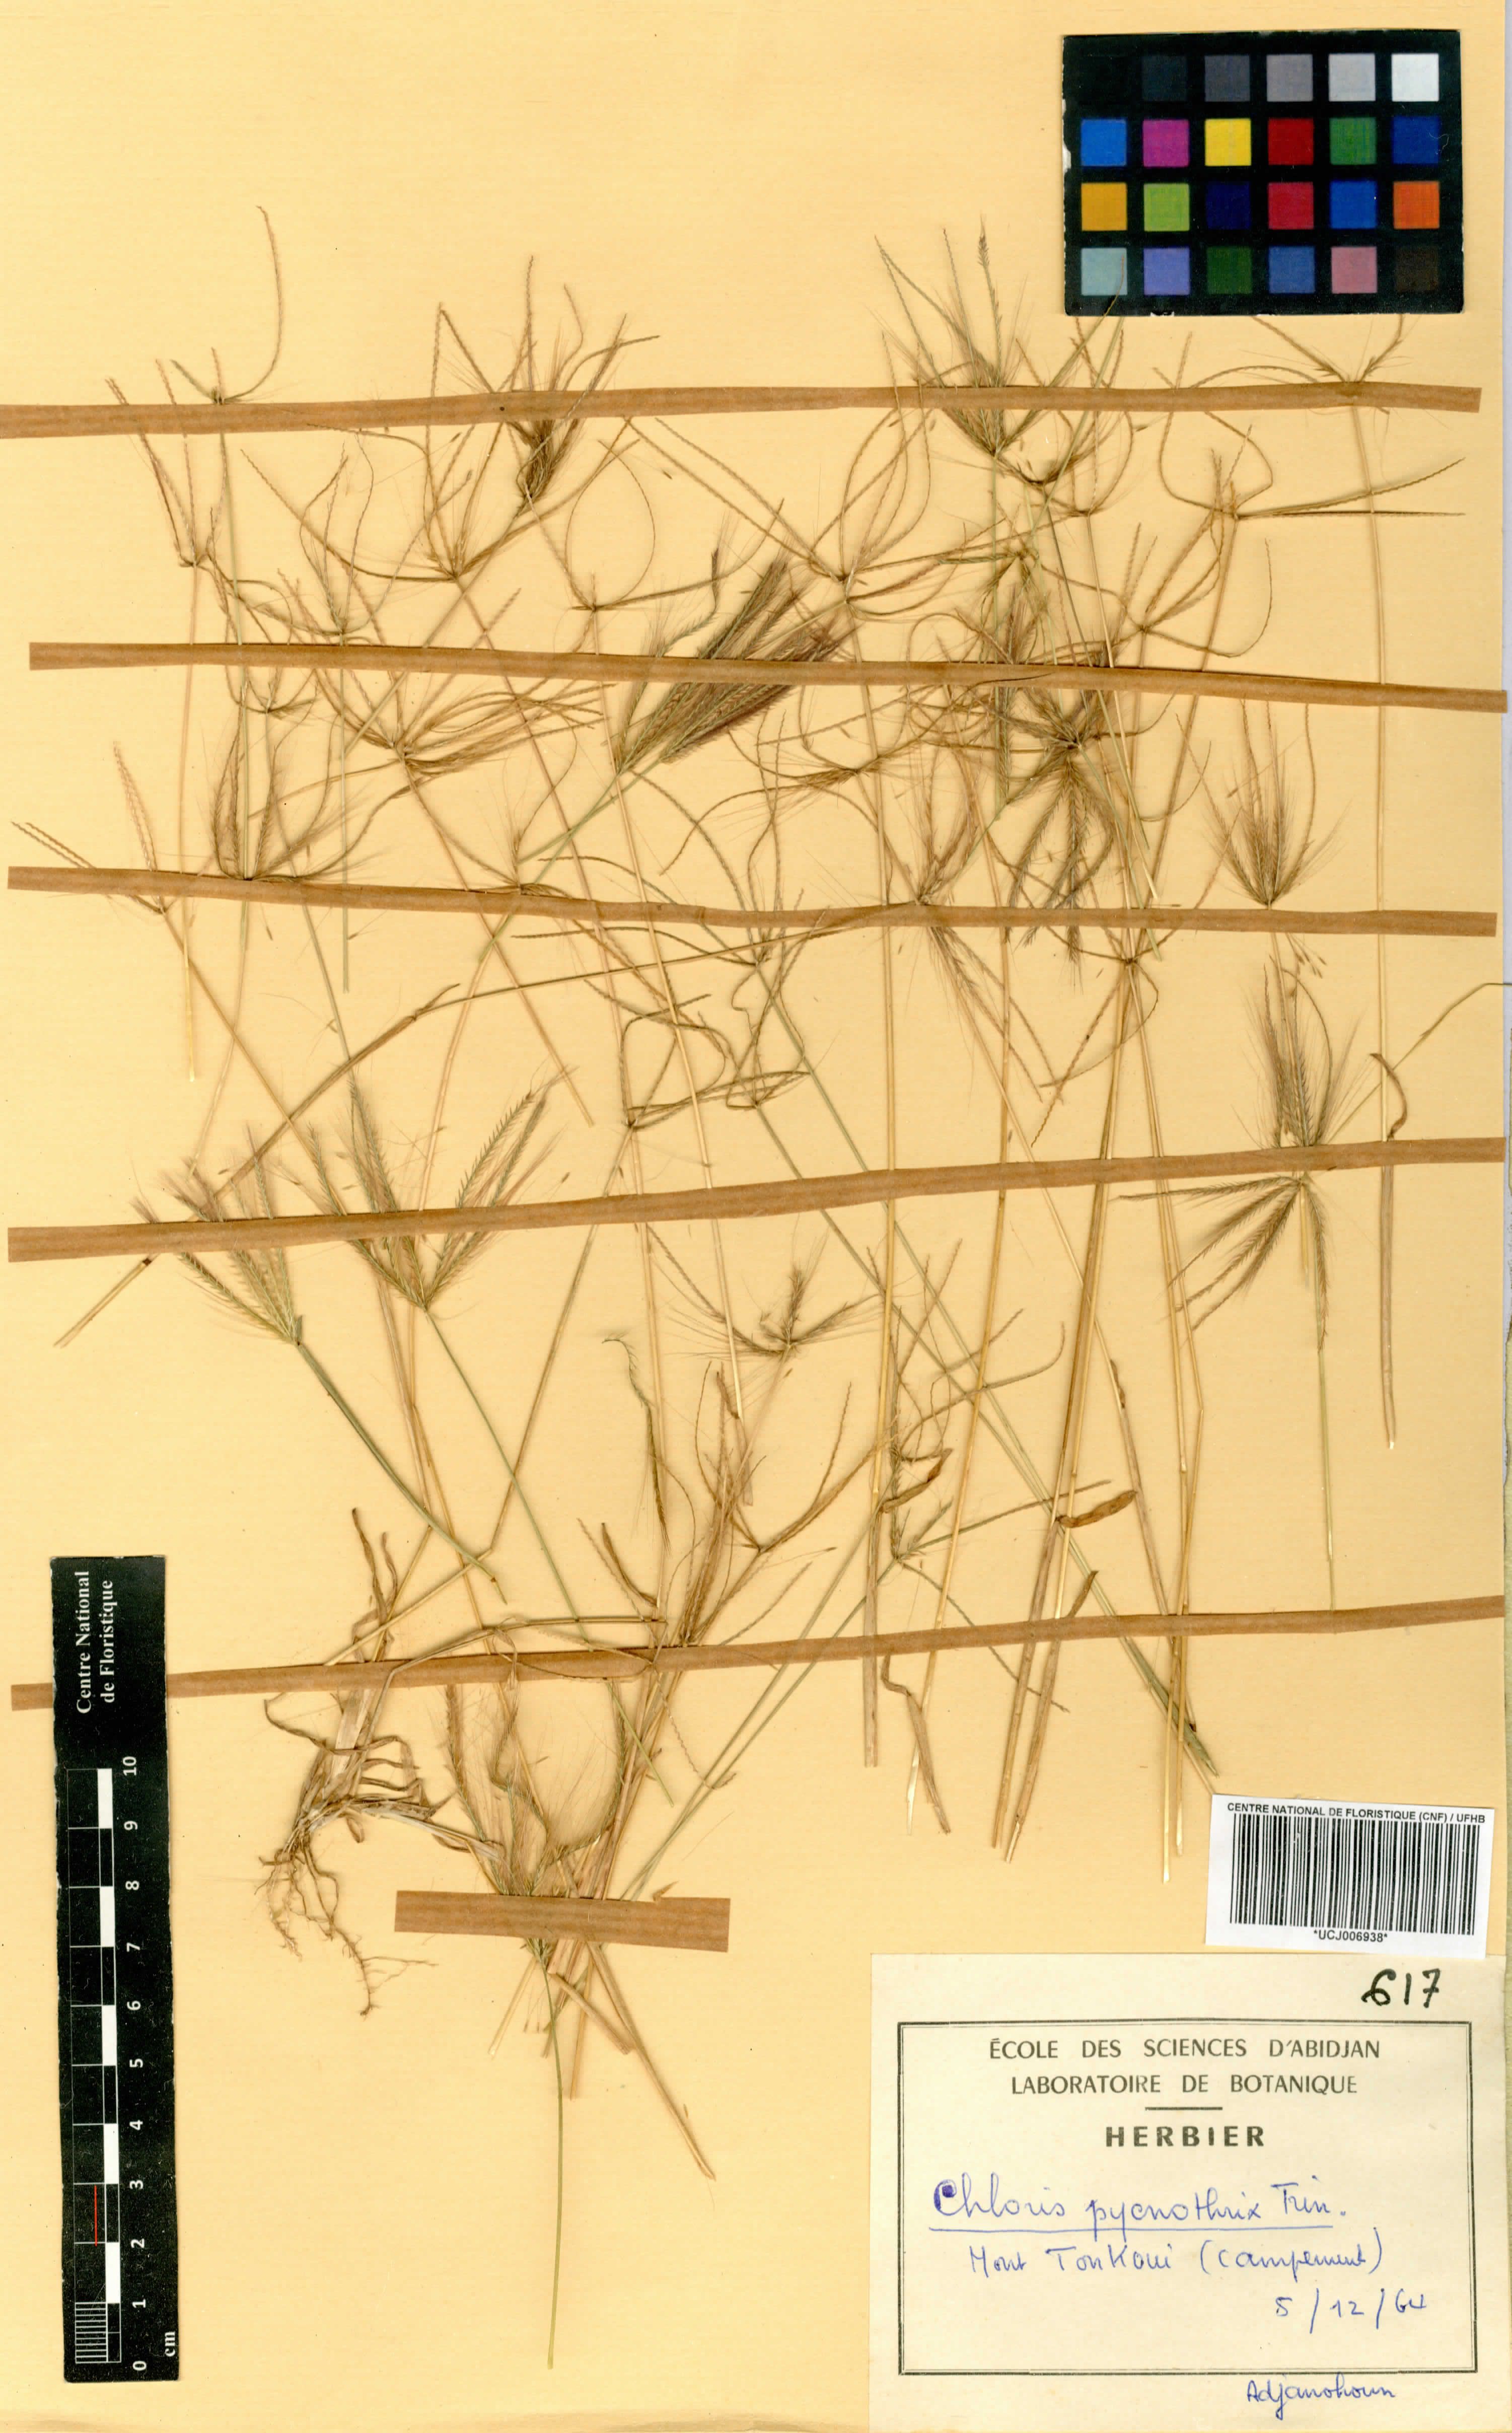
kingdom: Plantae
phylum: Tracheophyta
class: Liliopsida
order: Poales
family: Poaceae
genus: Chloris
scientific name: Chloris pycnothrix
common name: Spiderweb chloris
